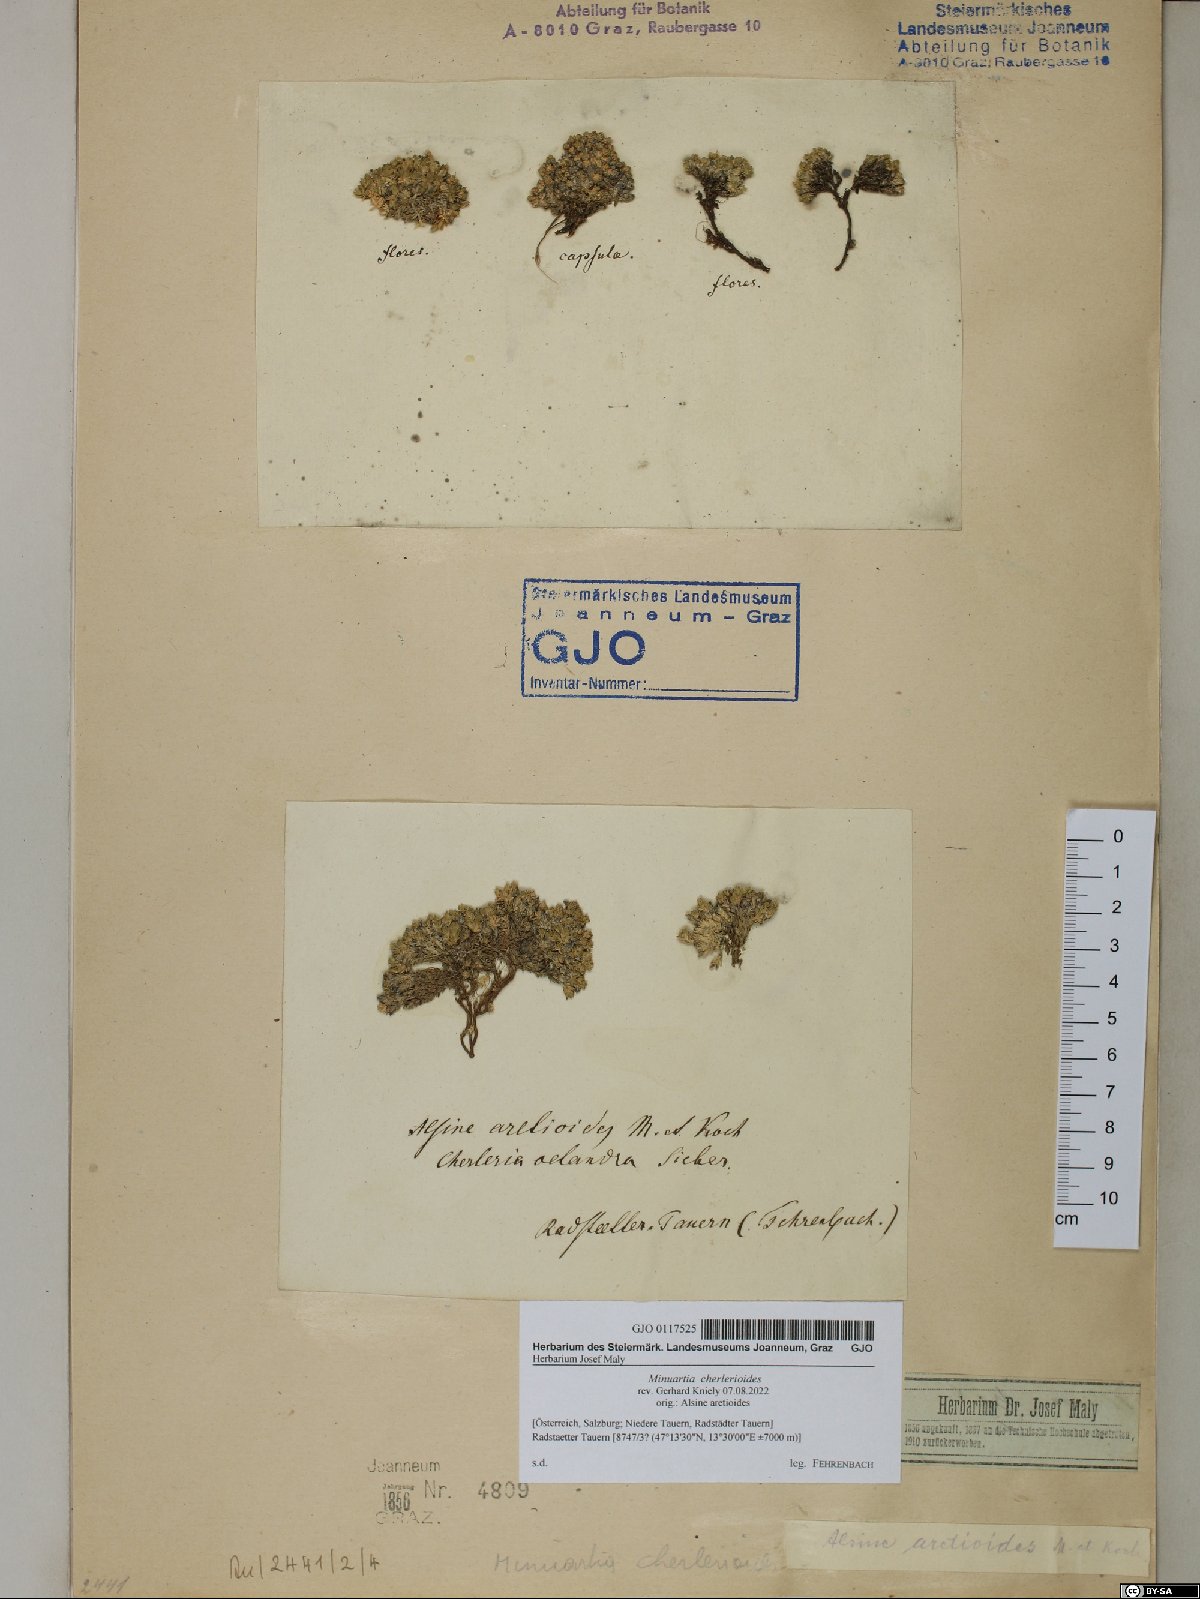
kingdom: Plantae
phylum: Tracheophyta
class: Magnoliopsida
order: Caryophyllales
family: Caryophyllaceae
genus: Facchinia
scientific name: Facchinia cherlerioides
